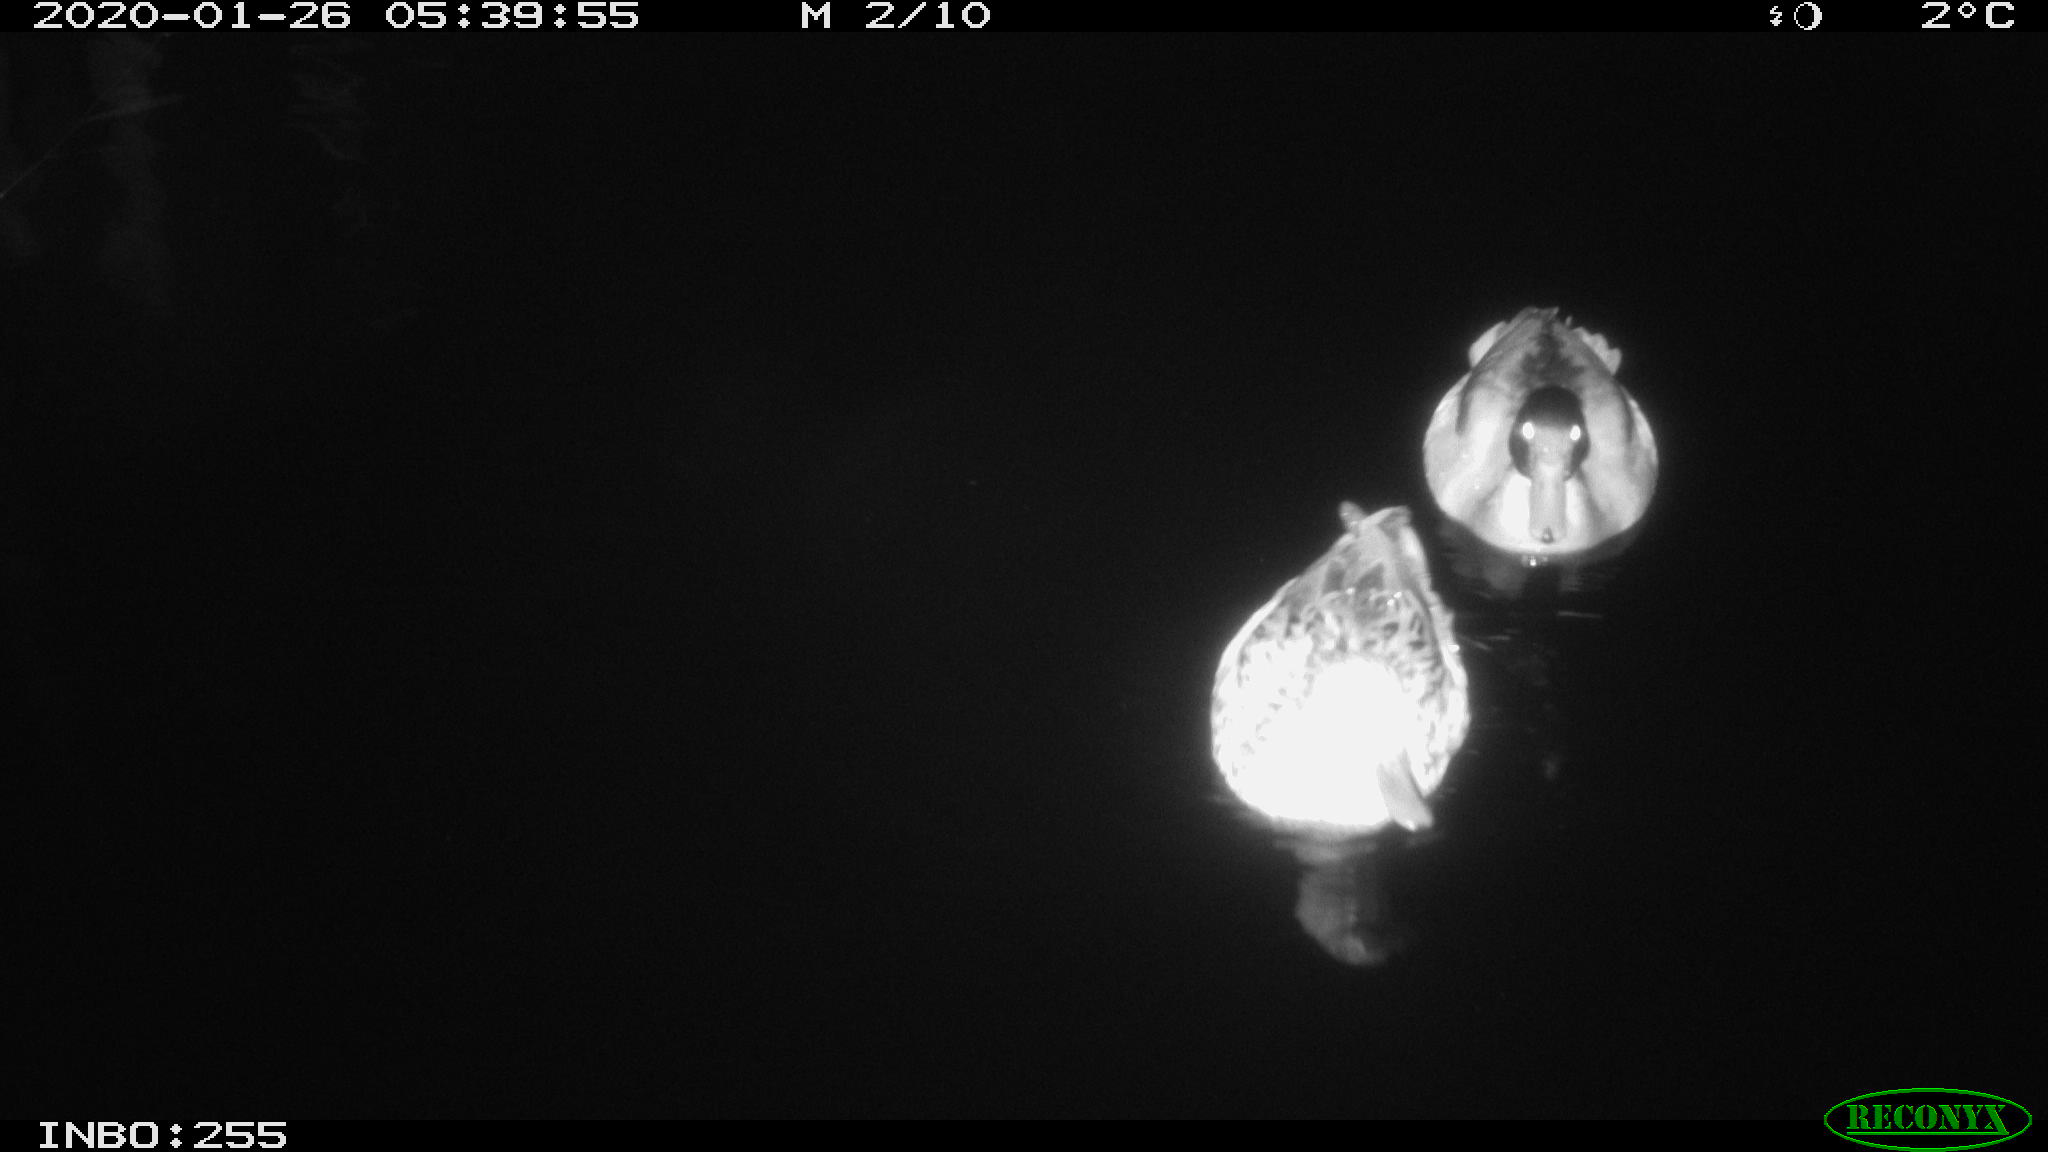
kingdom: Animalia
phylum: Chordata
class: Aves
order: Anseriformes
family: Anatidae
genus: Anas
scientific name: Anas platyrhynchos
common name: Mallard
